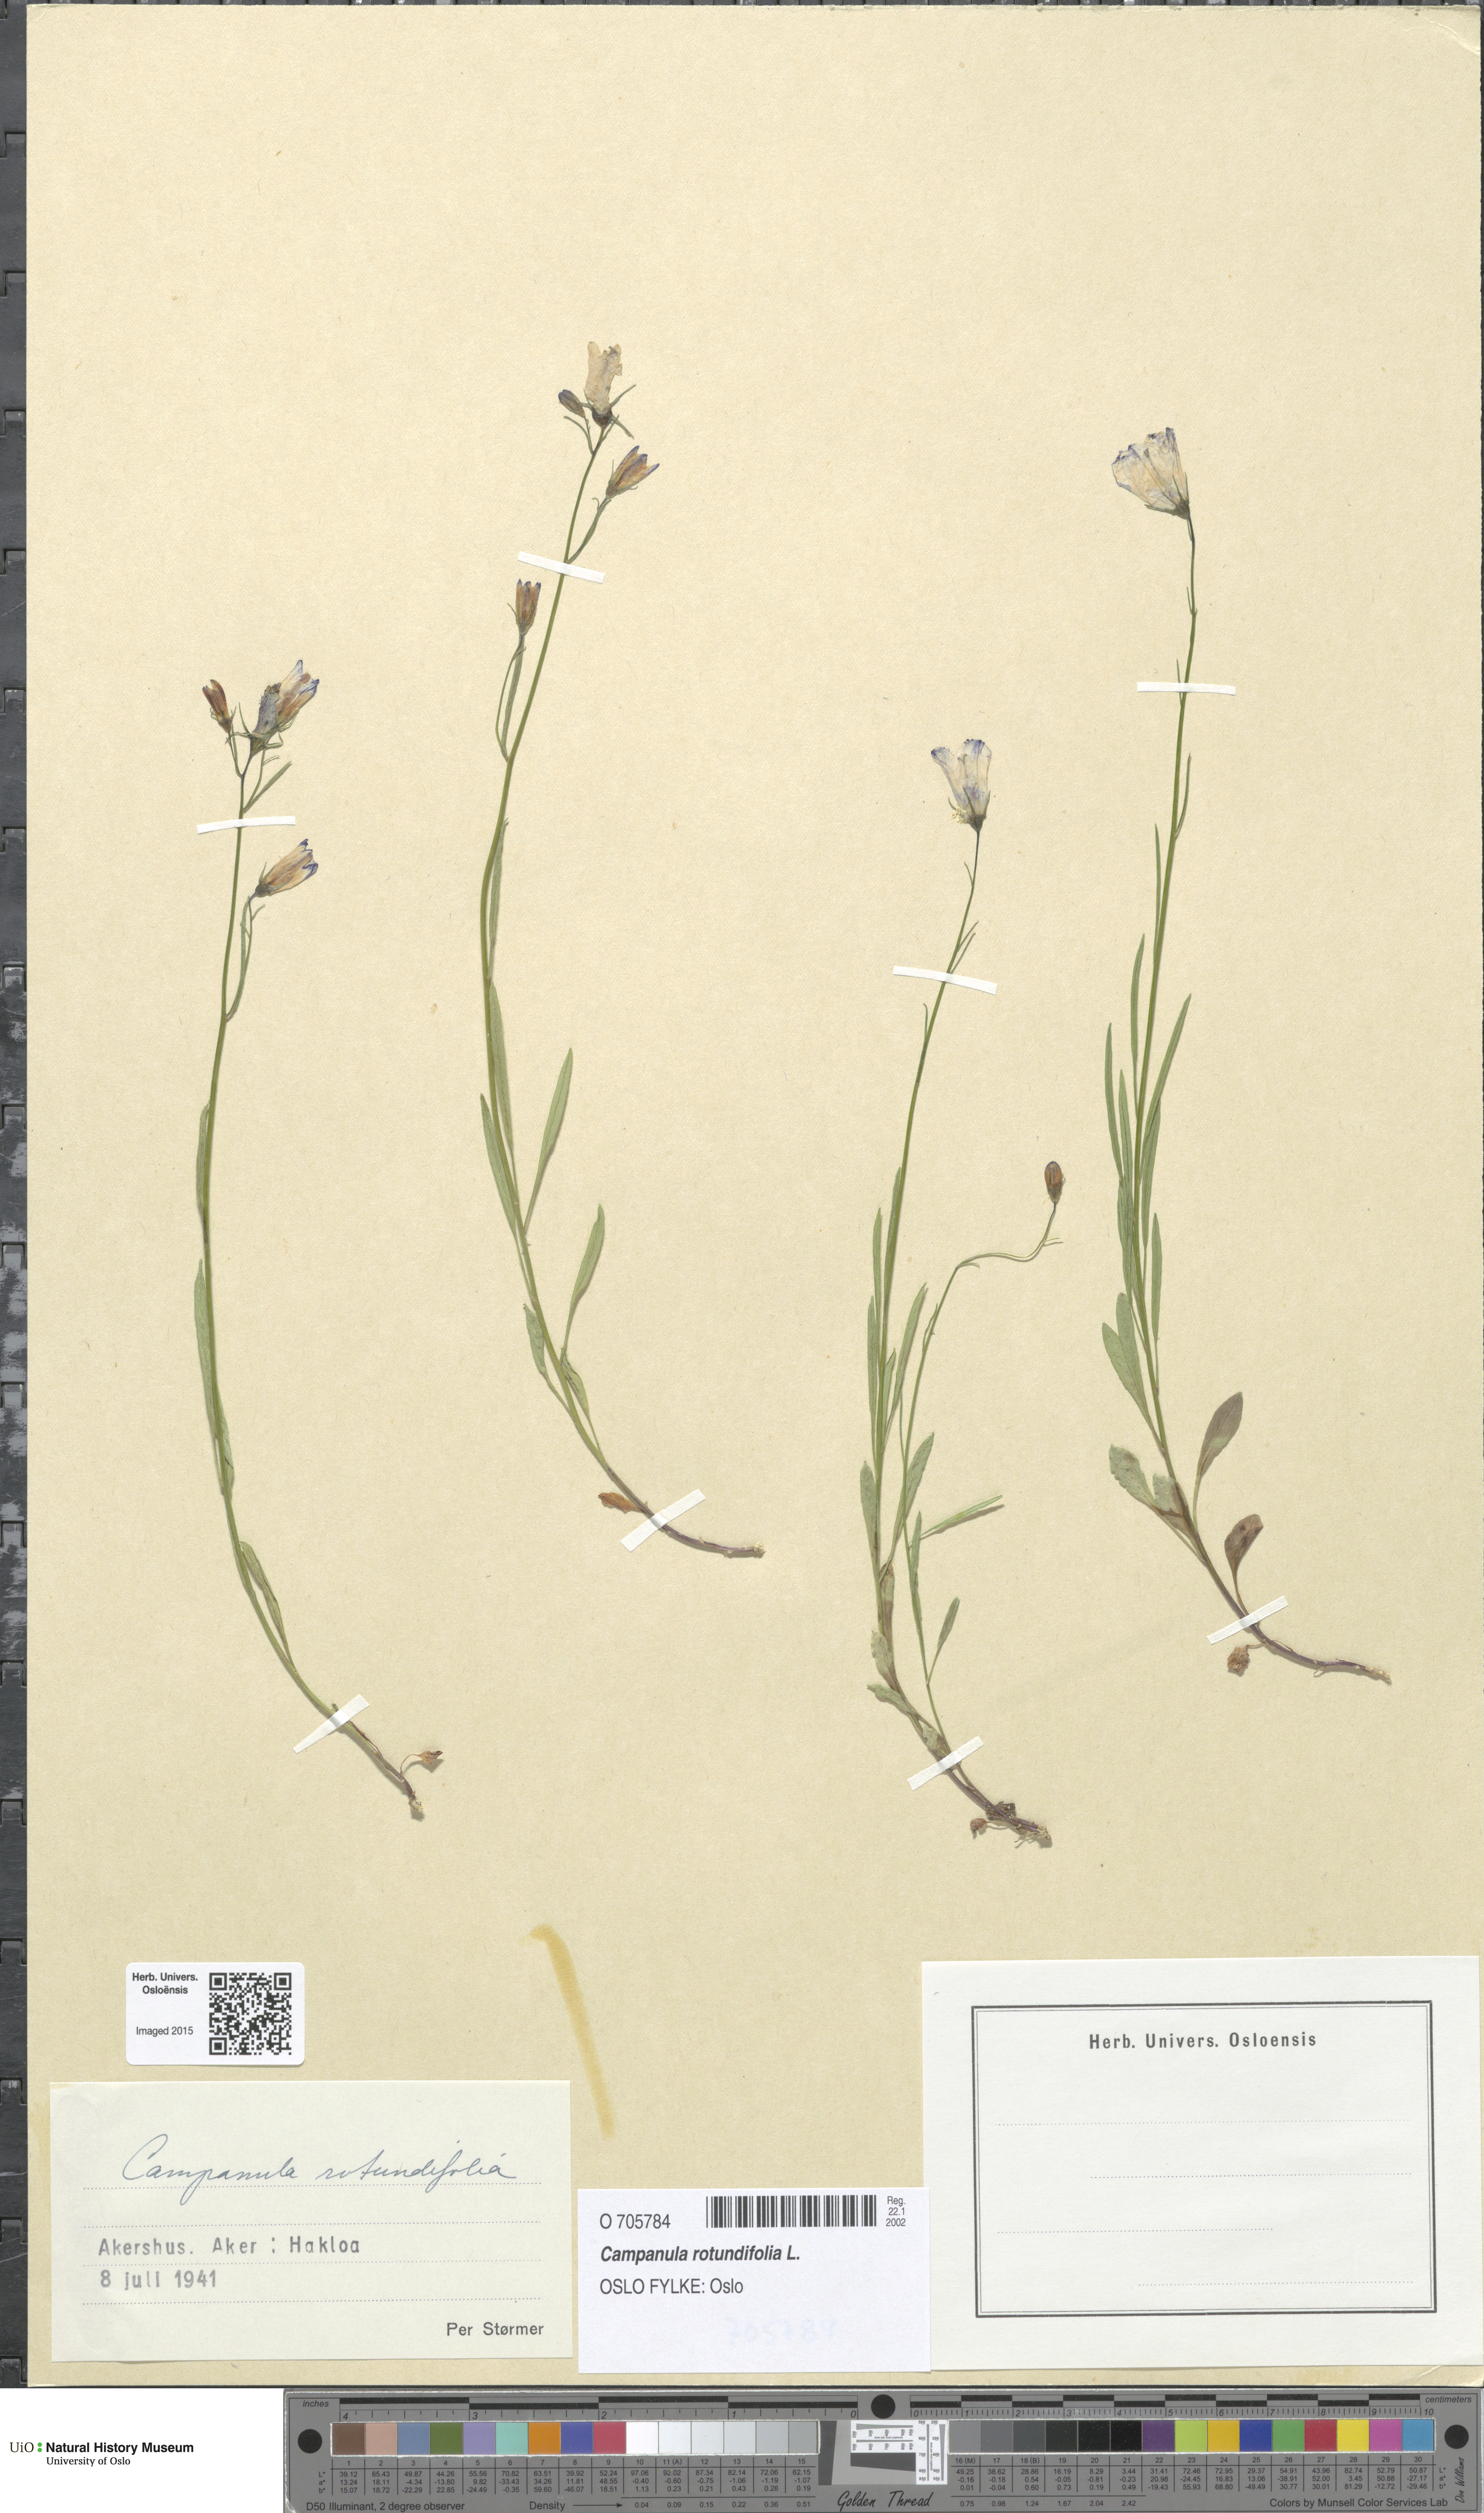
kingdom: Plantae
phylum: Tracheophyta
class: Magnoliopsida
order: Asterales
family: Campanulaceae
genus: Campanula
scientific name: Campanula rotundifolia
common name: Harebell
